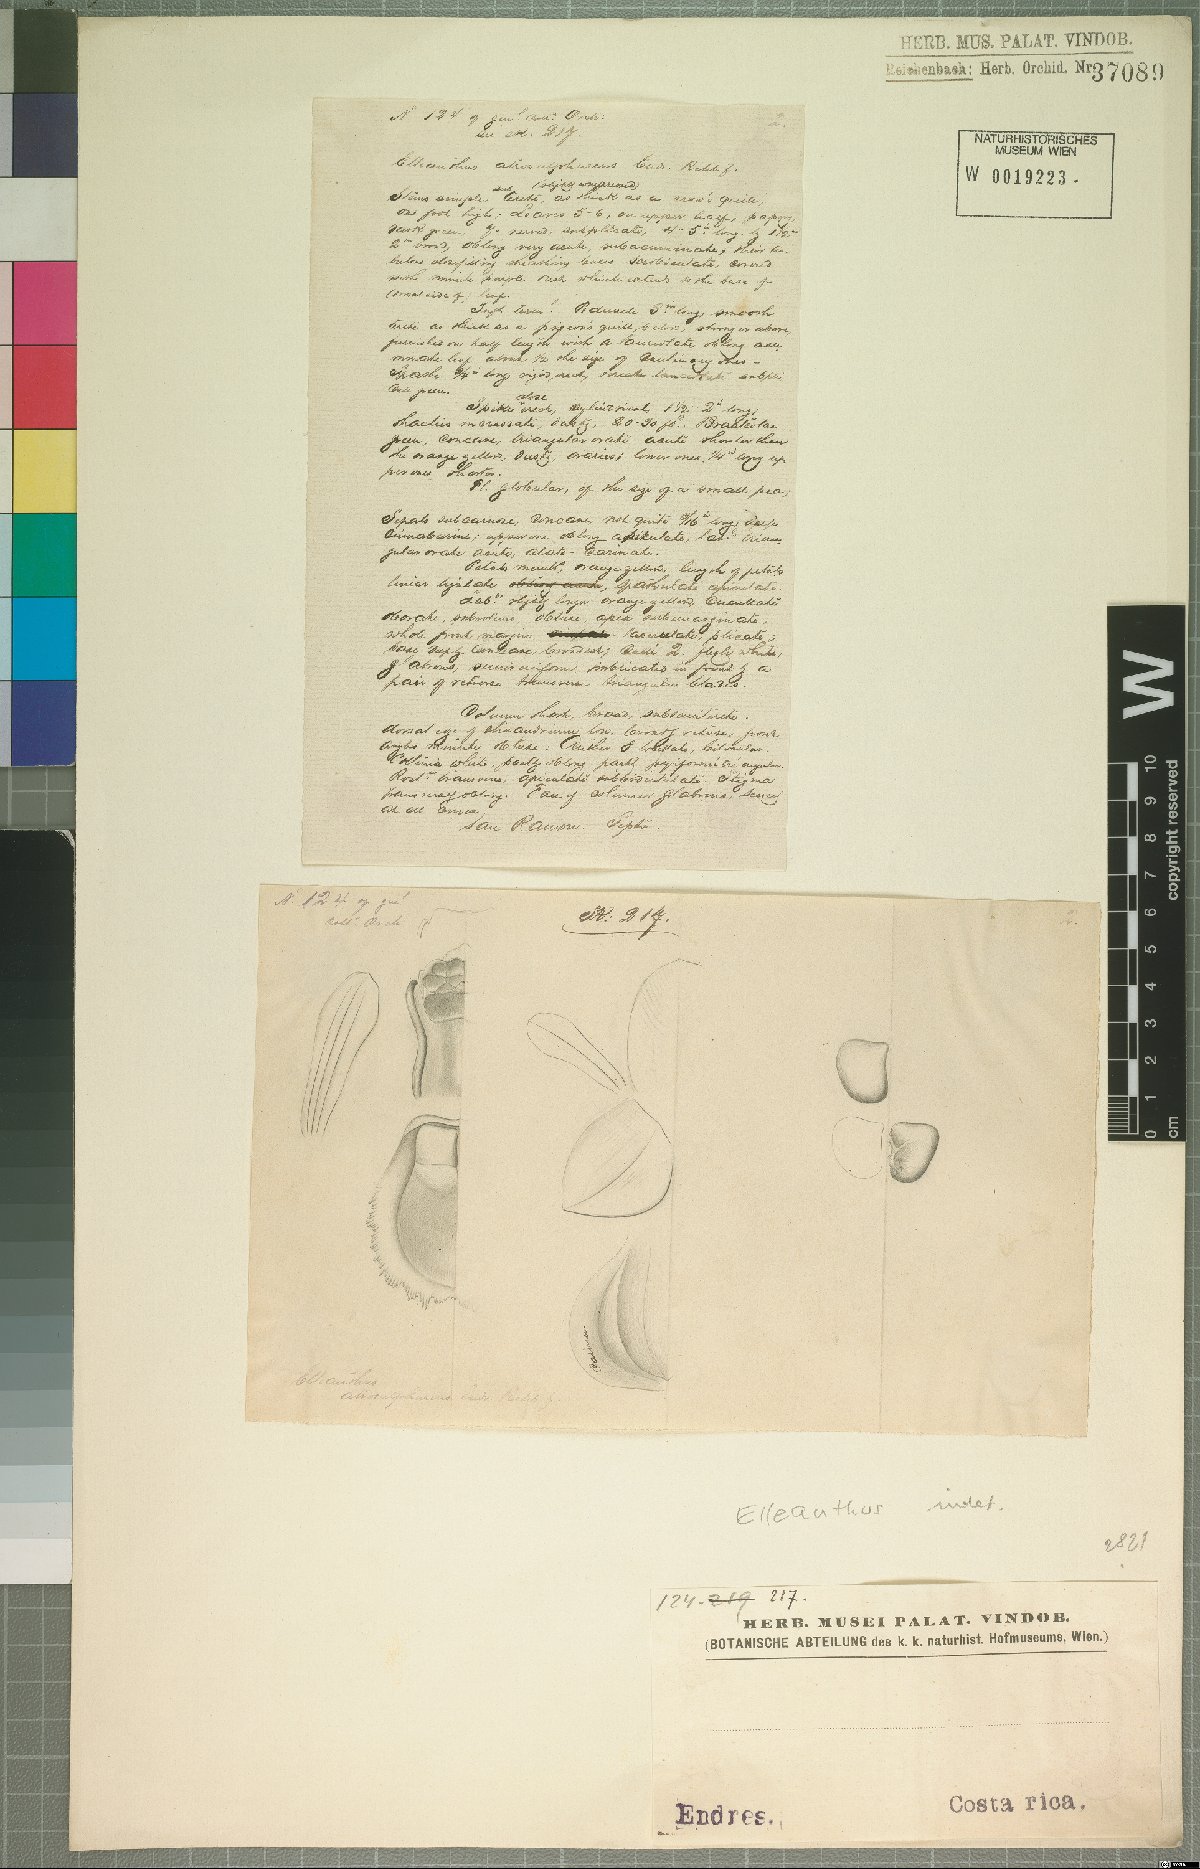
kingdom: Plantae
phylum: Tracheophyta
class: Liliopsida
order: Asparagales
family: Orchidaceae
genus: Elleanthus
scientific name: Elleanthus
